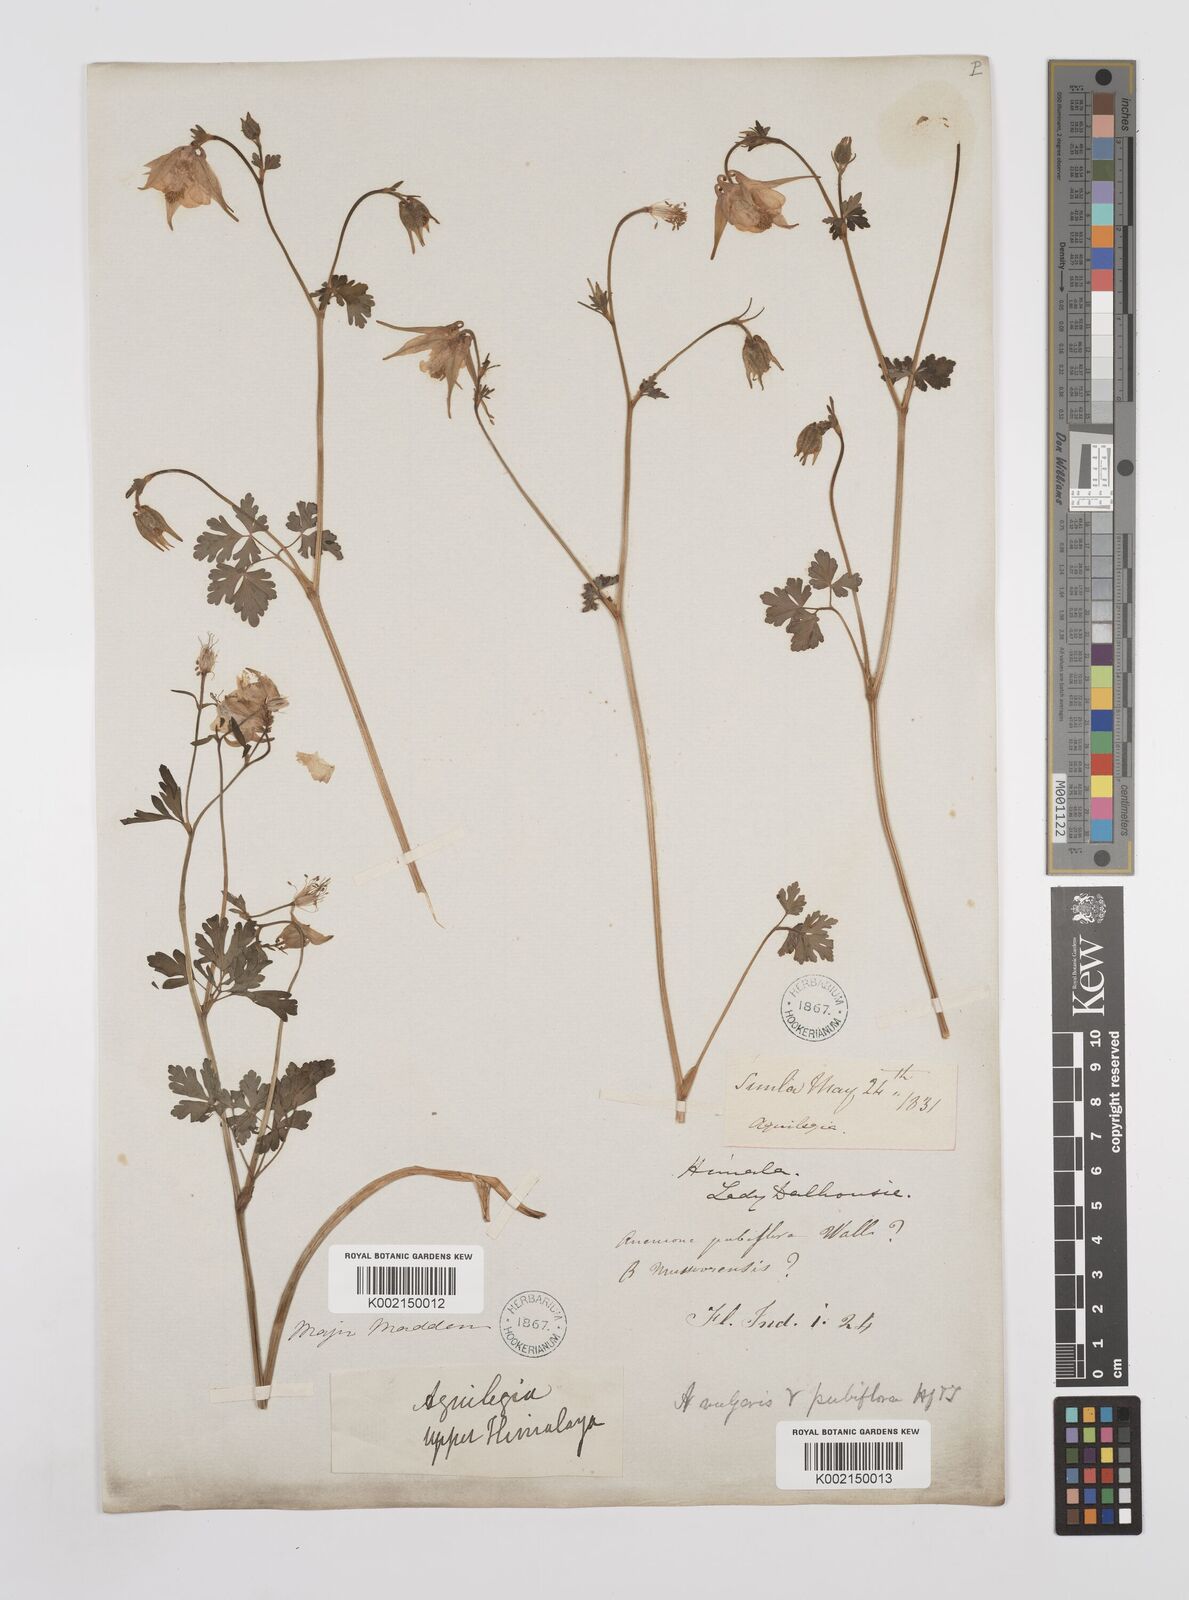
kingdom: Plantae
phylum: Tracheophyta
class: Magnoliopsida
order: Ranunculales
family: Ranunculaceae
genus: Aquilegia
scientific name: Aquilegia pubiflora
